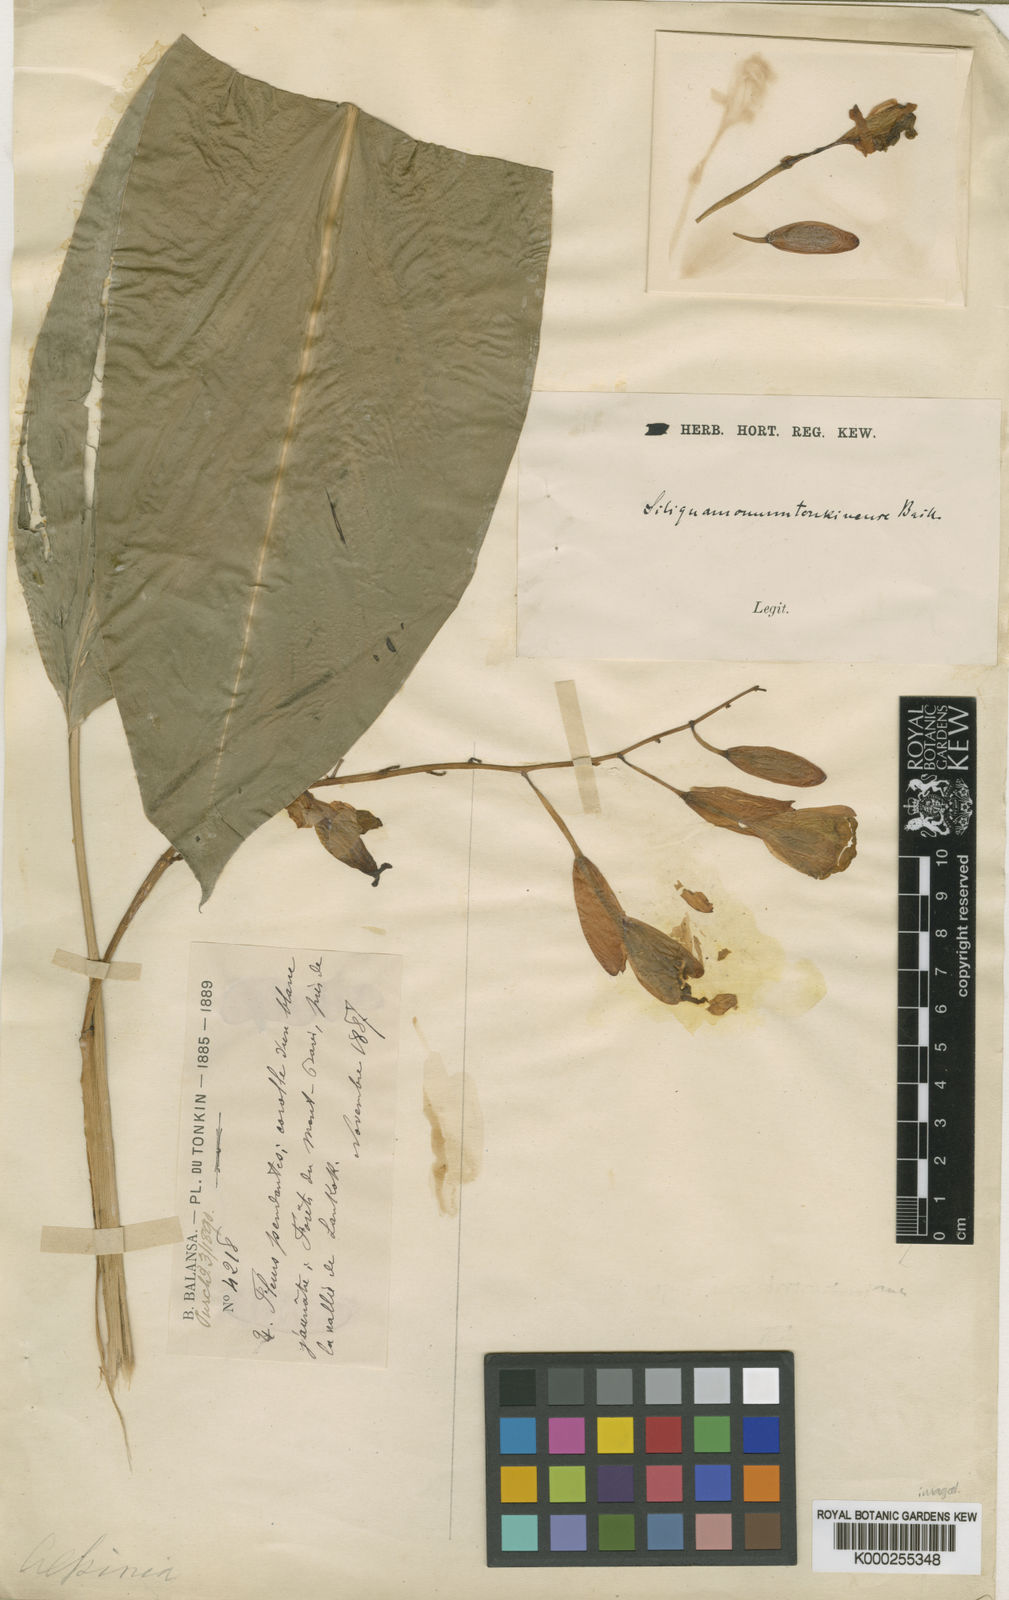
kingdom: Plantae
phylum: Tracheophyta
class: Liliopsida
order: Zingiberales
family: Zingiberaceae
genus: Siliquamomum
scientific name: Siliquamomum tonkinense
